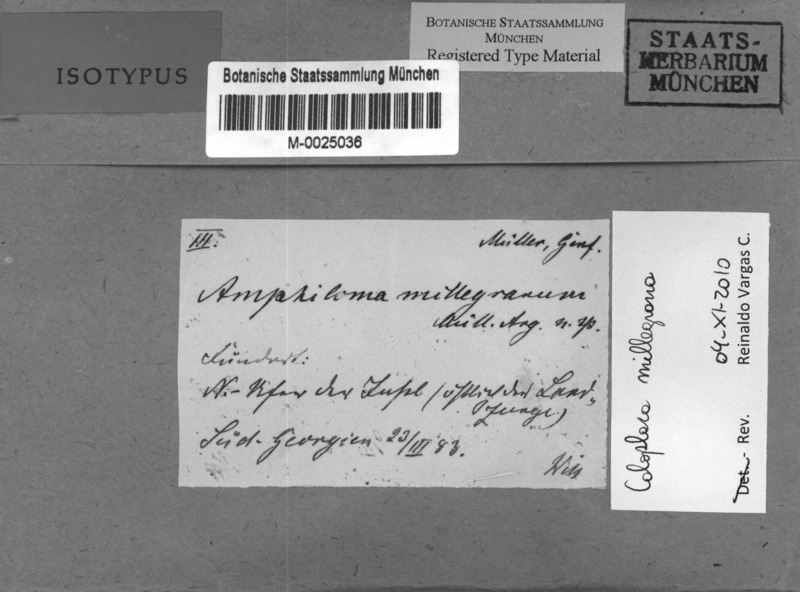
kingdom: Fungi
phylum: Ascomycota
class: Lecanoromycetes
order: Teloschistales
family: Teloschistaceae
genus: Austroplaca
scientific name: Austroplaca millegrana
